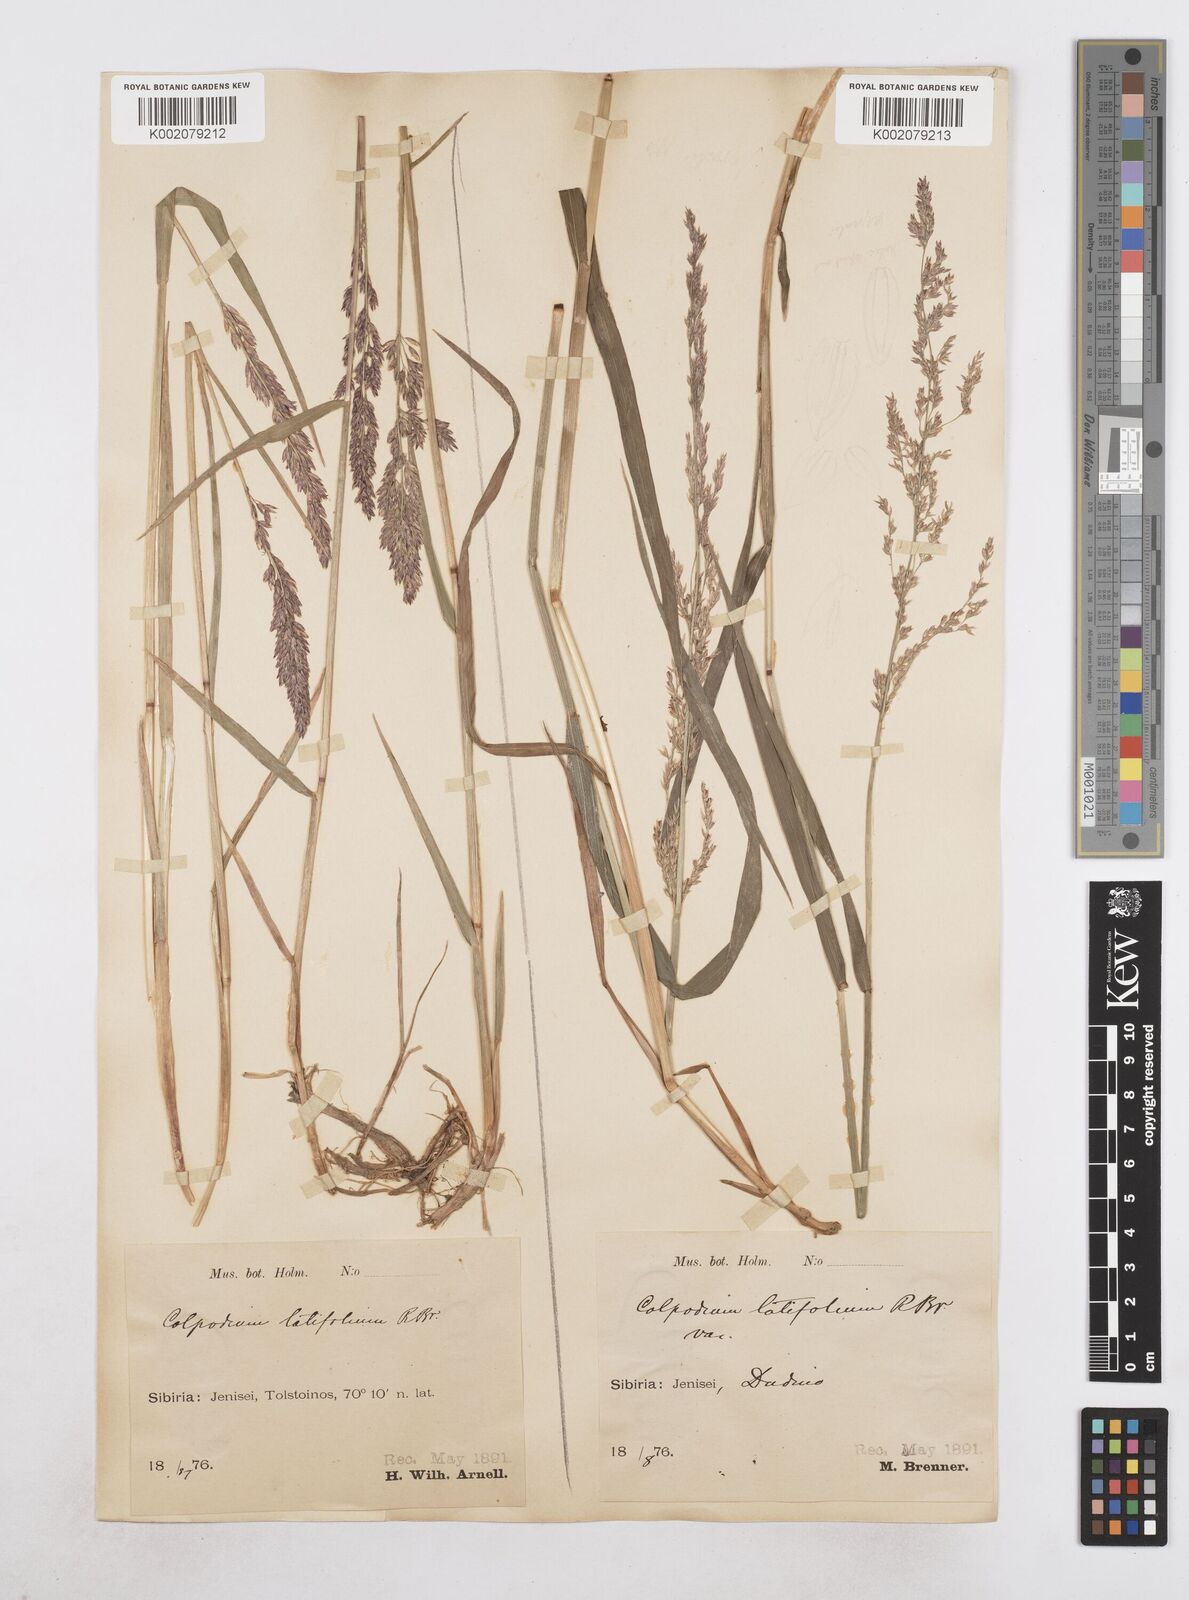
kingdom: Plantae
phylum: Tracheophyta
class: Liliopsida
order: Poales
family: Poaceae
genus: Arctagrostis
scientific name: Arctagrostis latifolia
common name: Arctic grass
